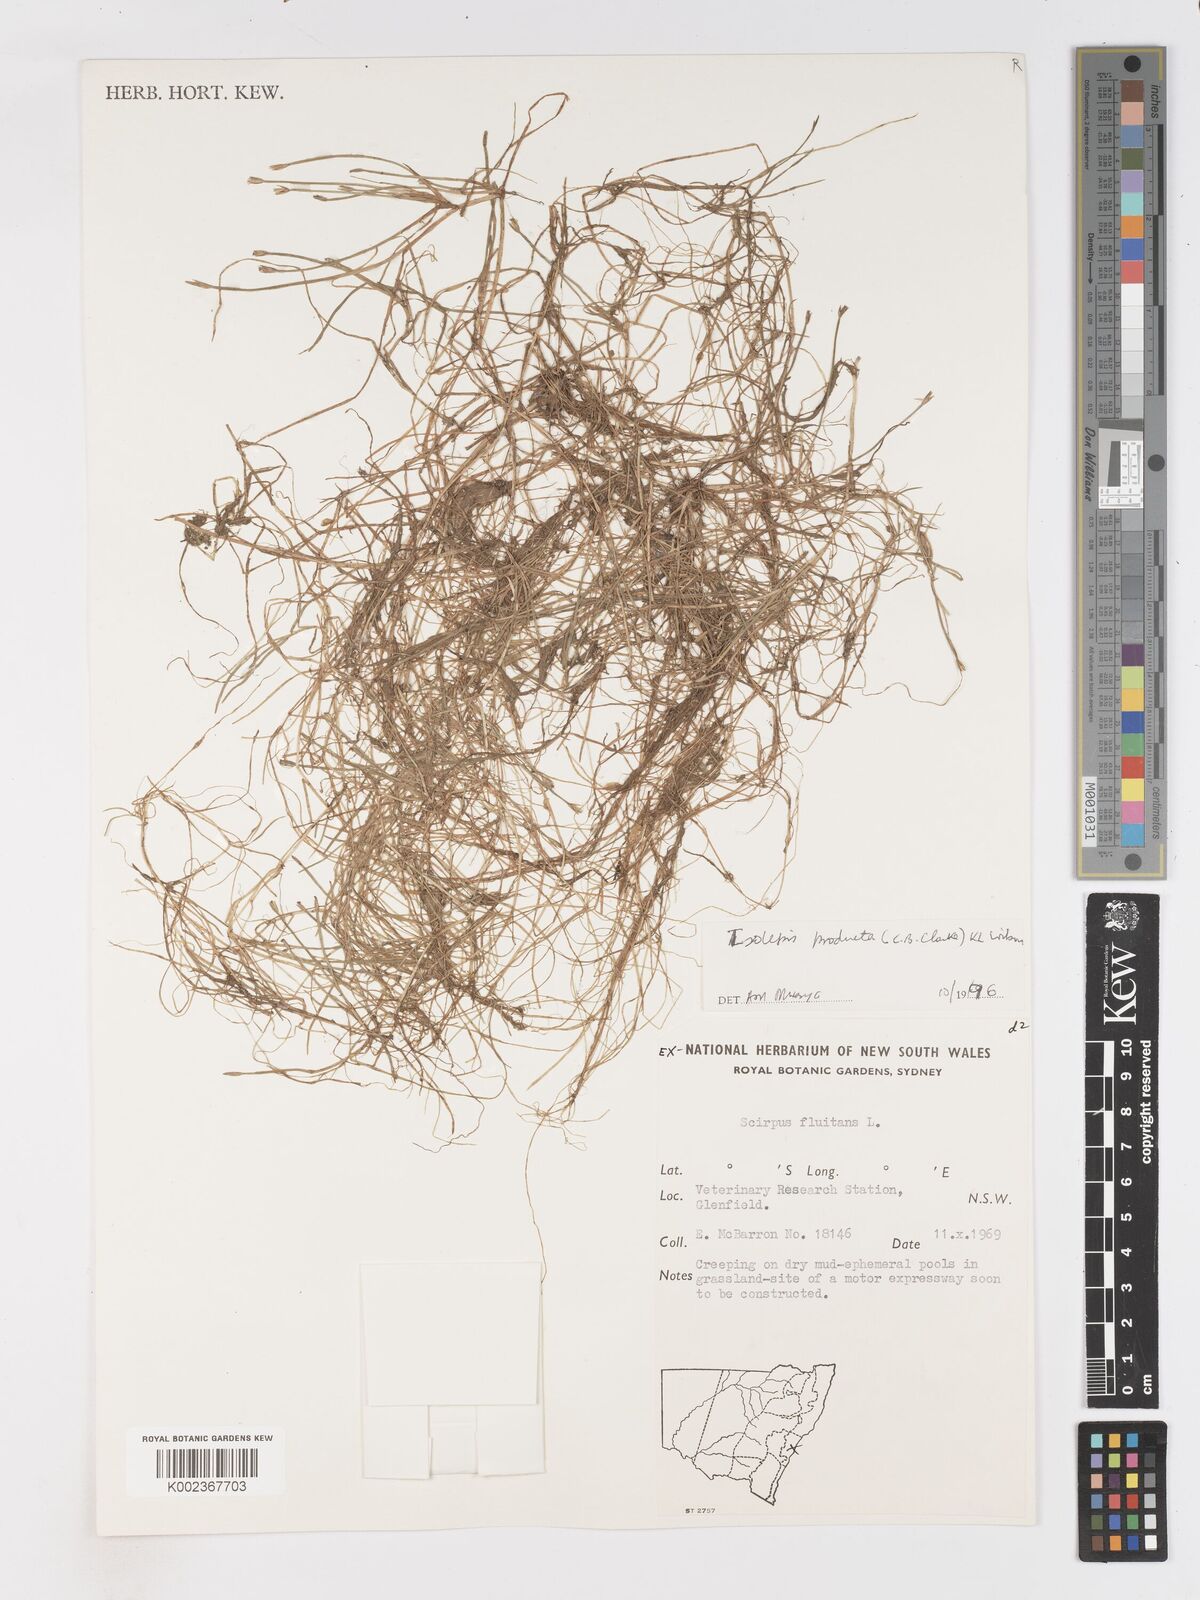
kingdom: Plantae
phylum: Tracheophyta
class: Liliopsida
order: Poales
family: Cyperaceae
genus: Isolepis
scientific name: Isolepis producta
